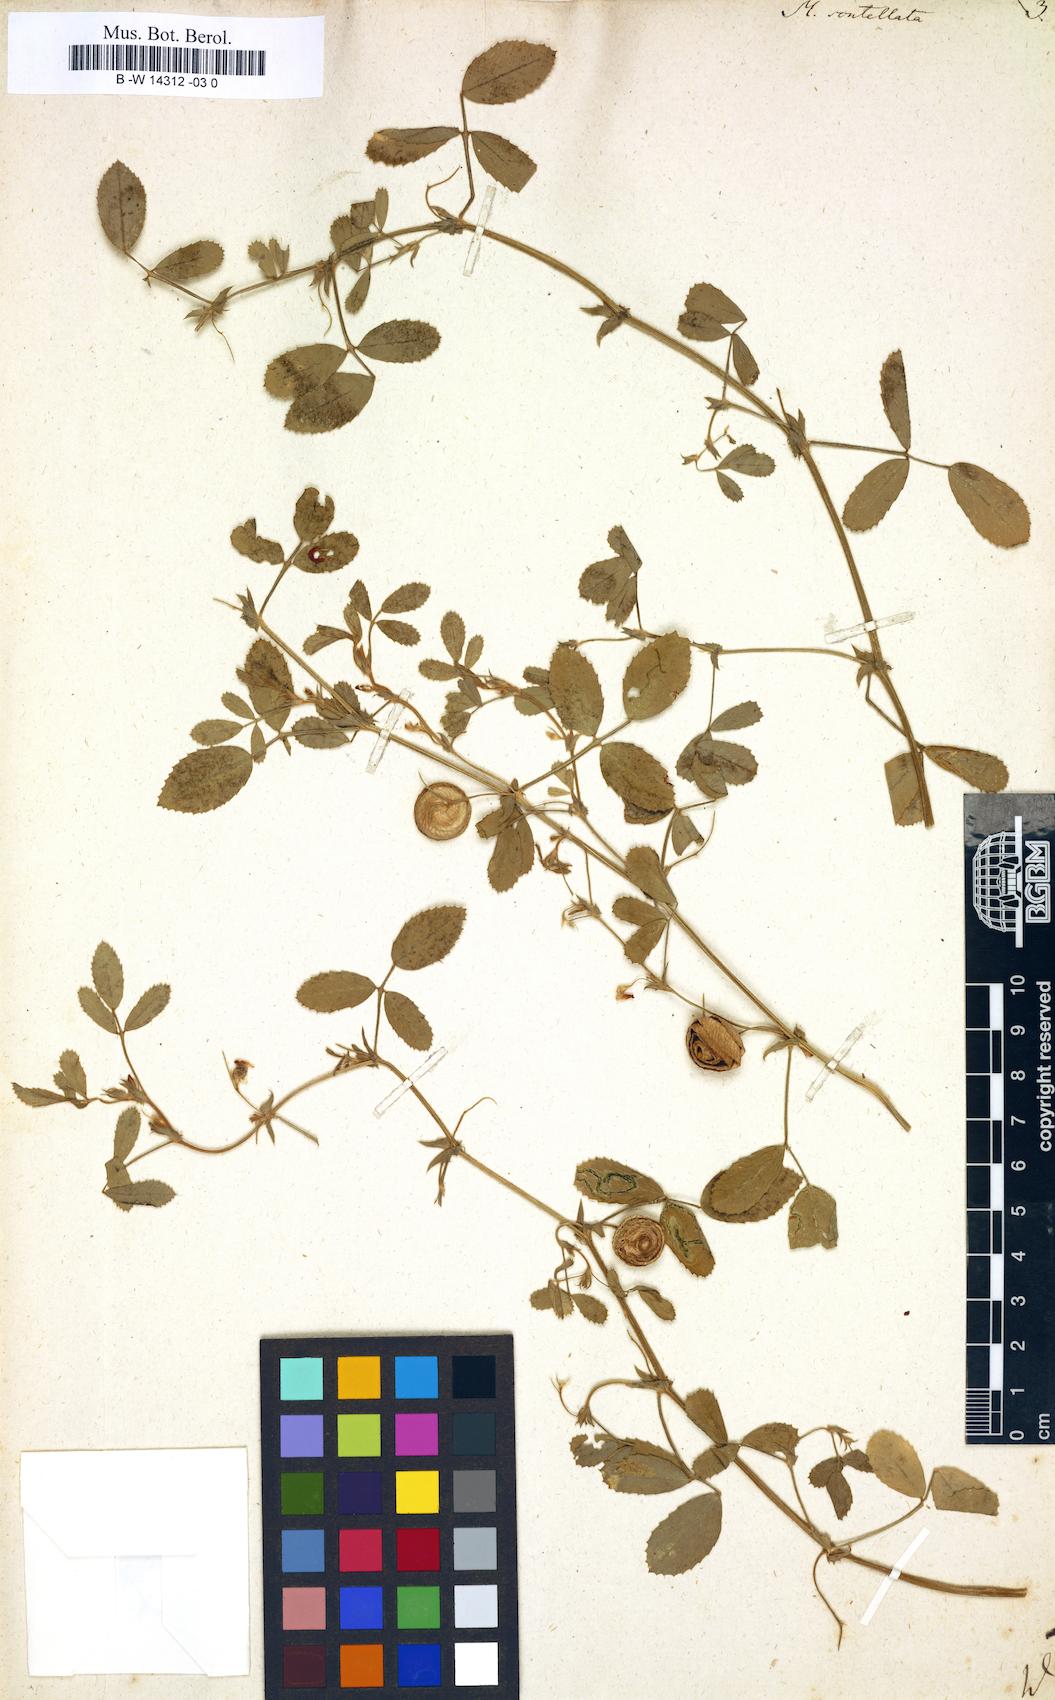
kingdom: Plantae
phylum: Tracheophyta
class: Magnoliopsida
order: Fabales
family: Fabaceae
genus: Medicago
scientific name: Medicago scutellata
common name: Snail medick
